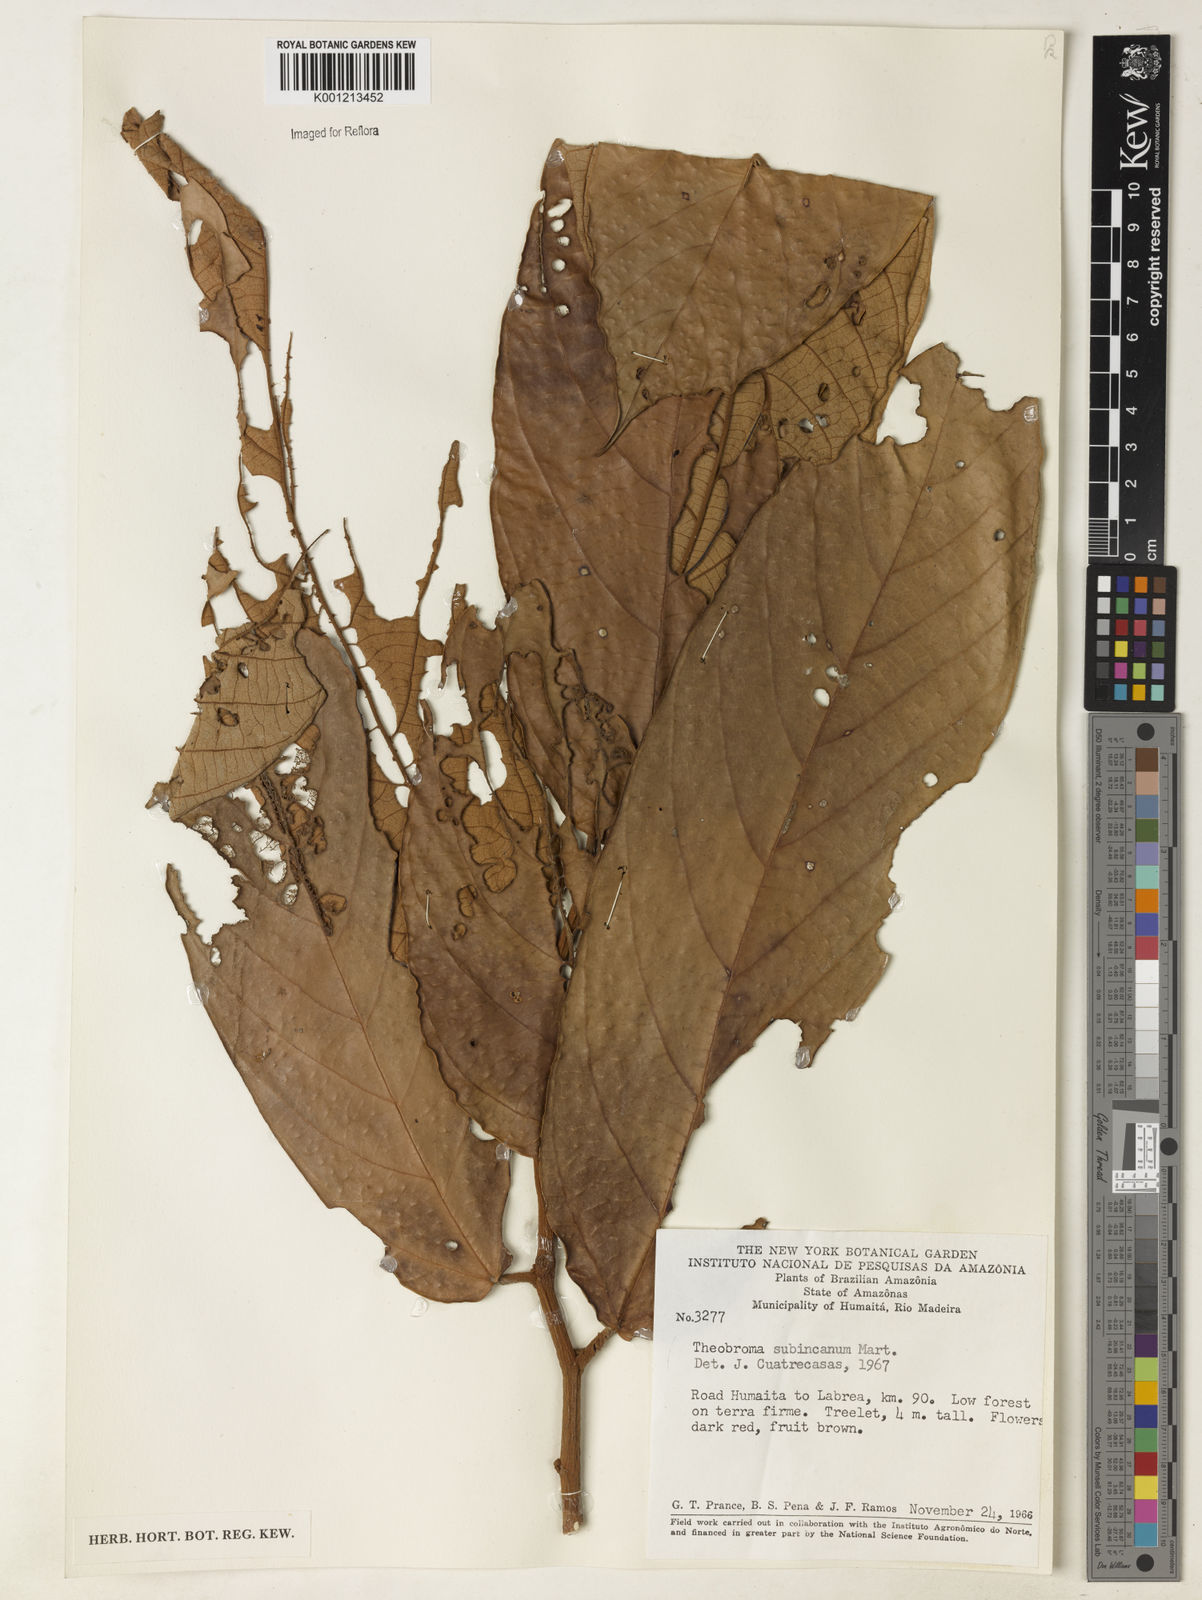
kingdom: Plantae
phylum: Tracheophyta
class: Magnoliopsida
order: Malvales
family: Malvaceae
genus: Theobroma
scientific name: Theobroma subincanum
